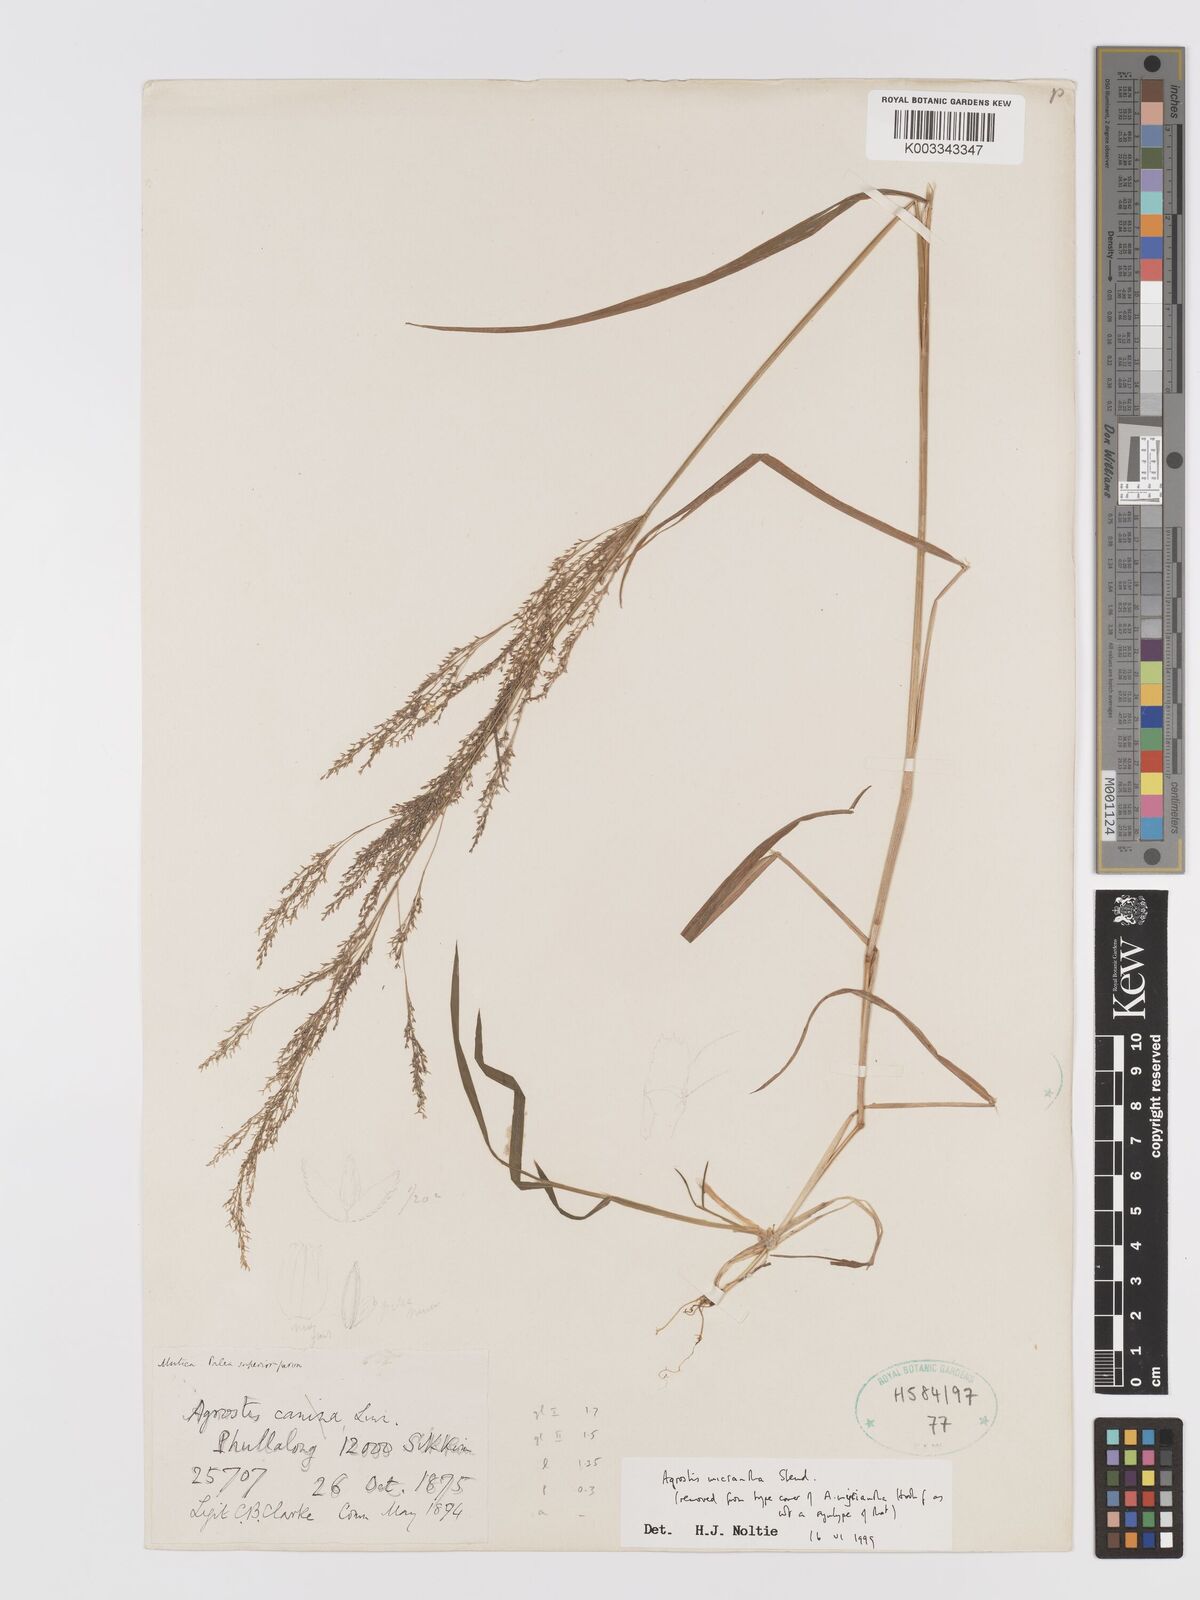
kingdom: Plantae
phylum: Tracheophyta
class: Liliopsida
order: Poales
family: Poaceae
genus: Agrostis
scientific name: Agrostis micrantha
